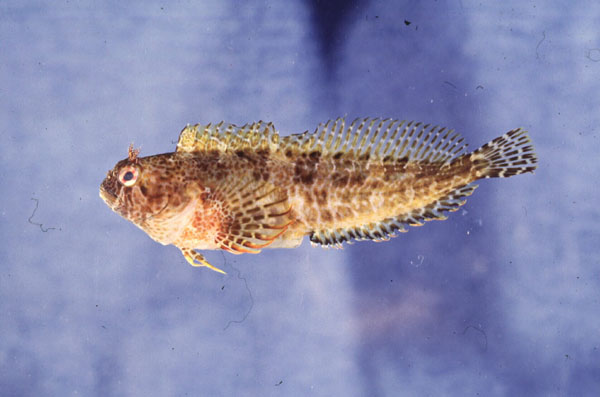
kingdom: Animalia
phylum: Chordata
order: Perciformes
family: Blenniidae
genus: Parablennius
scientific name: Parablennius gattorugine
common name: Tompot blenny
